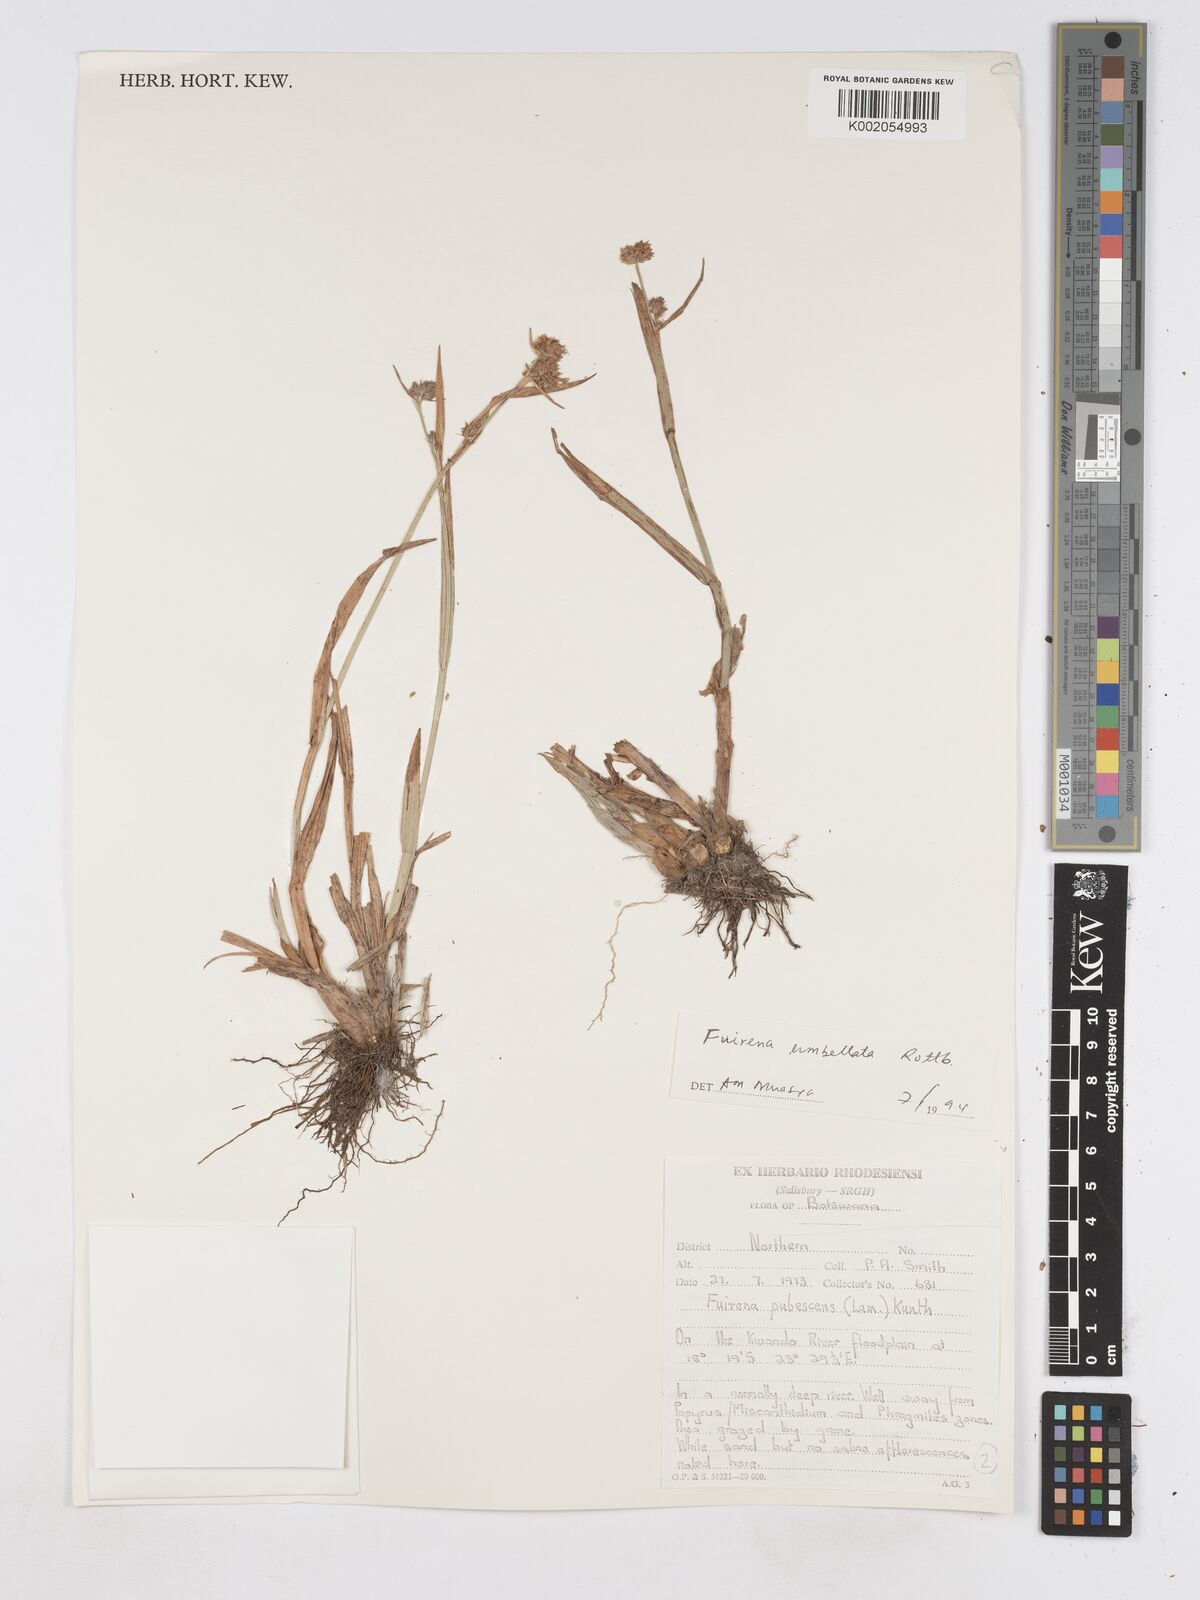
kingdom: Plantae
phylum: Tracheophyta
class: Liliopsida
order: Poales
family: Cyperaceae
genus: Fuirena
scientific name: Fuirena umbellata
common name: Yefen
